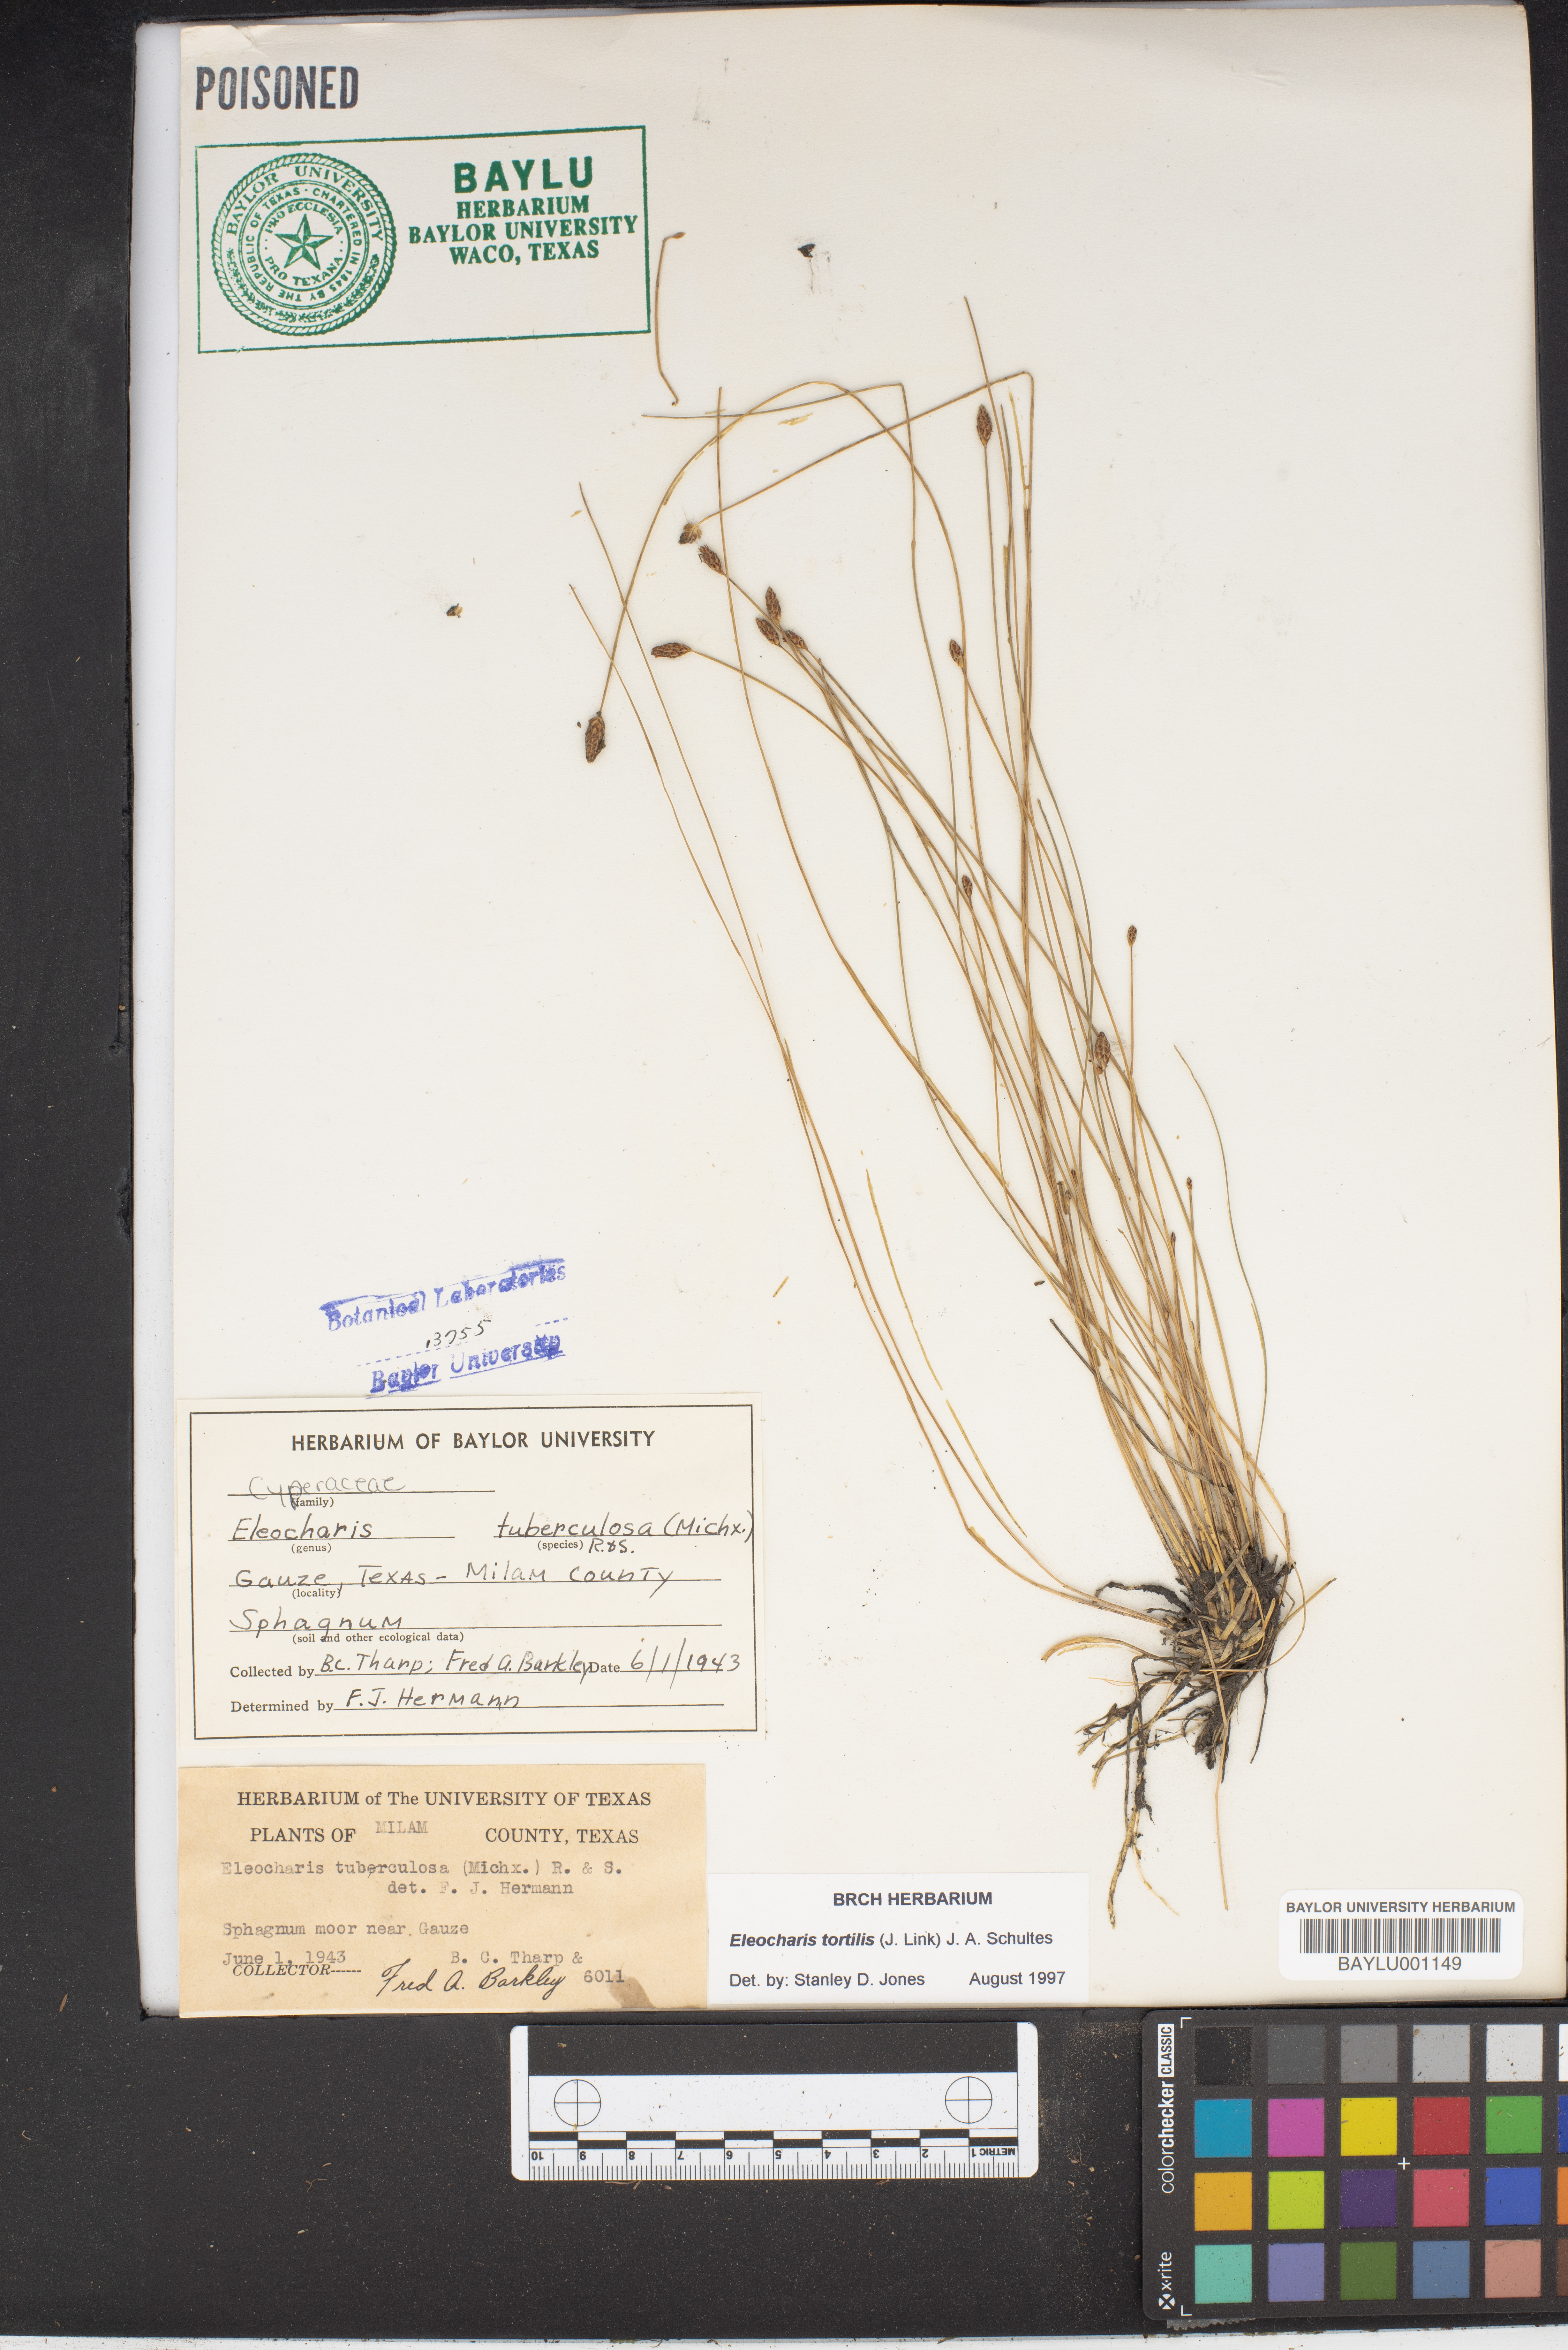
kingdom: Plantae
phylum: Tracheophyta
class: Liliopsida
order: Poales
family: Cyperaceae
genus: Eleocharis
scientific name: Eleocharis tortilis
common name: Twisted spike sedge
